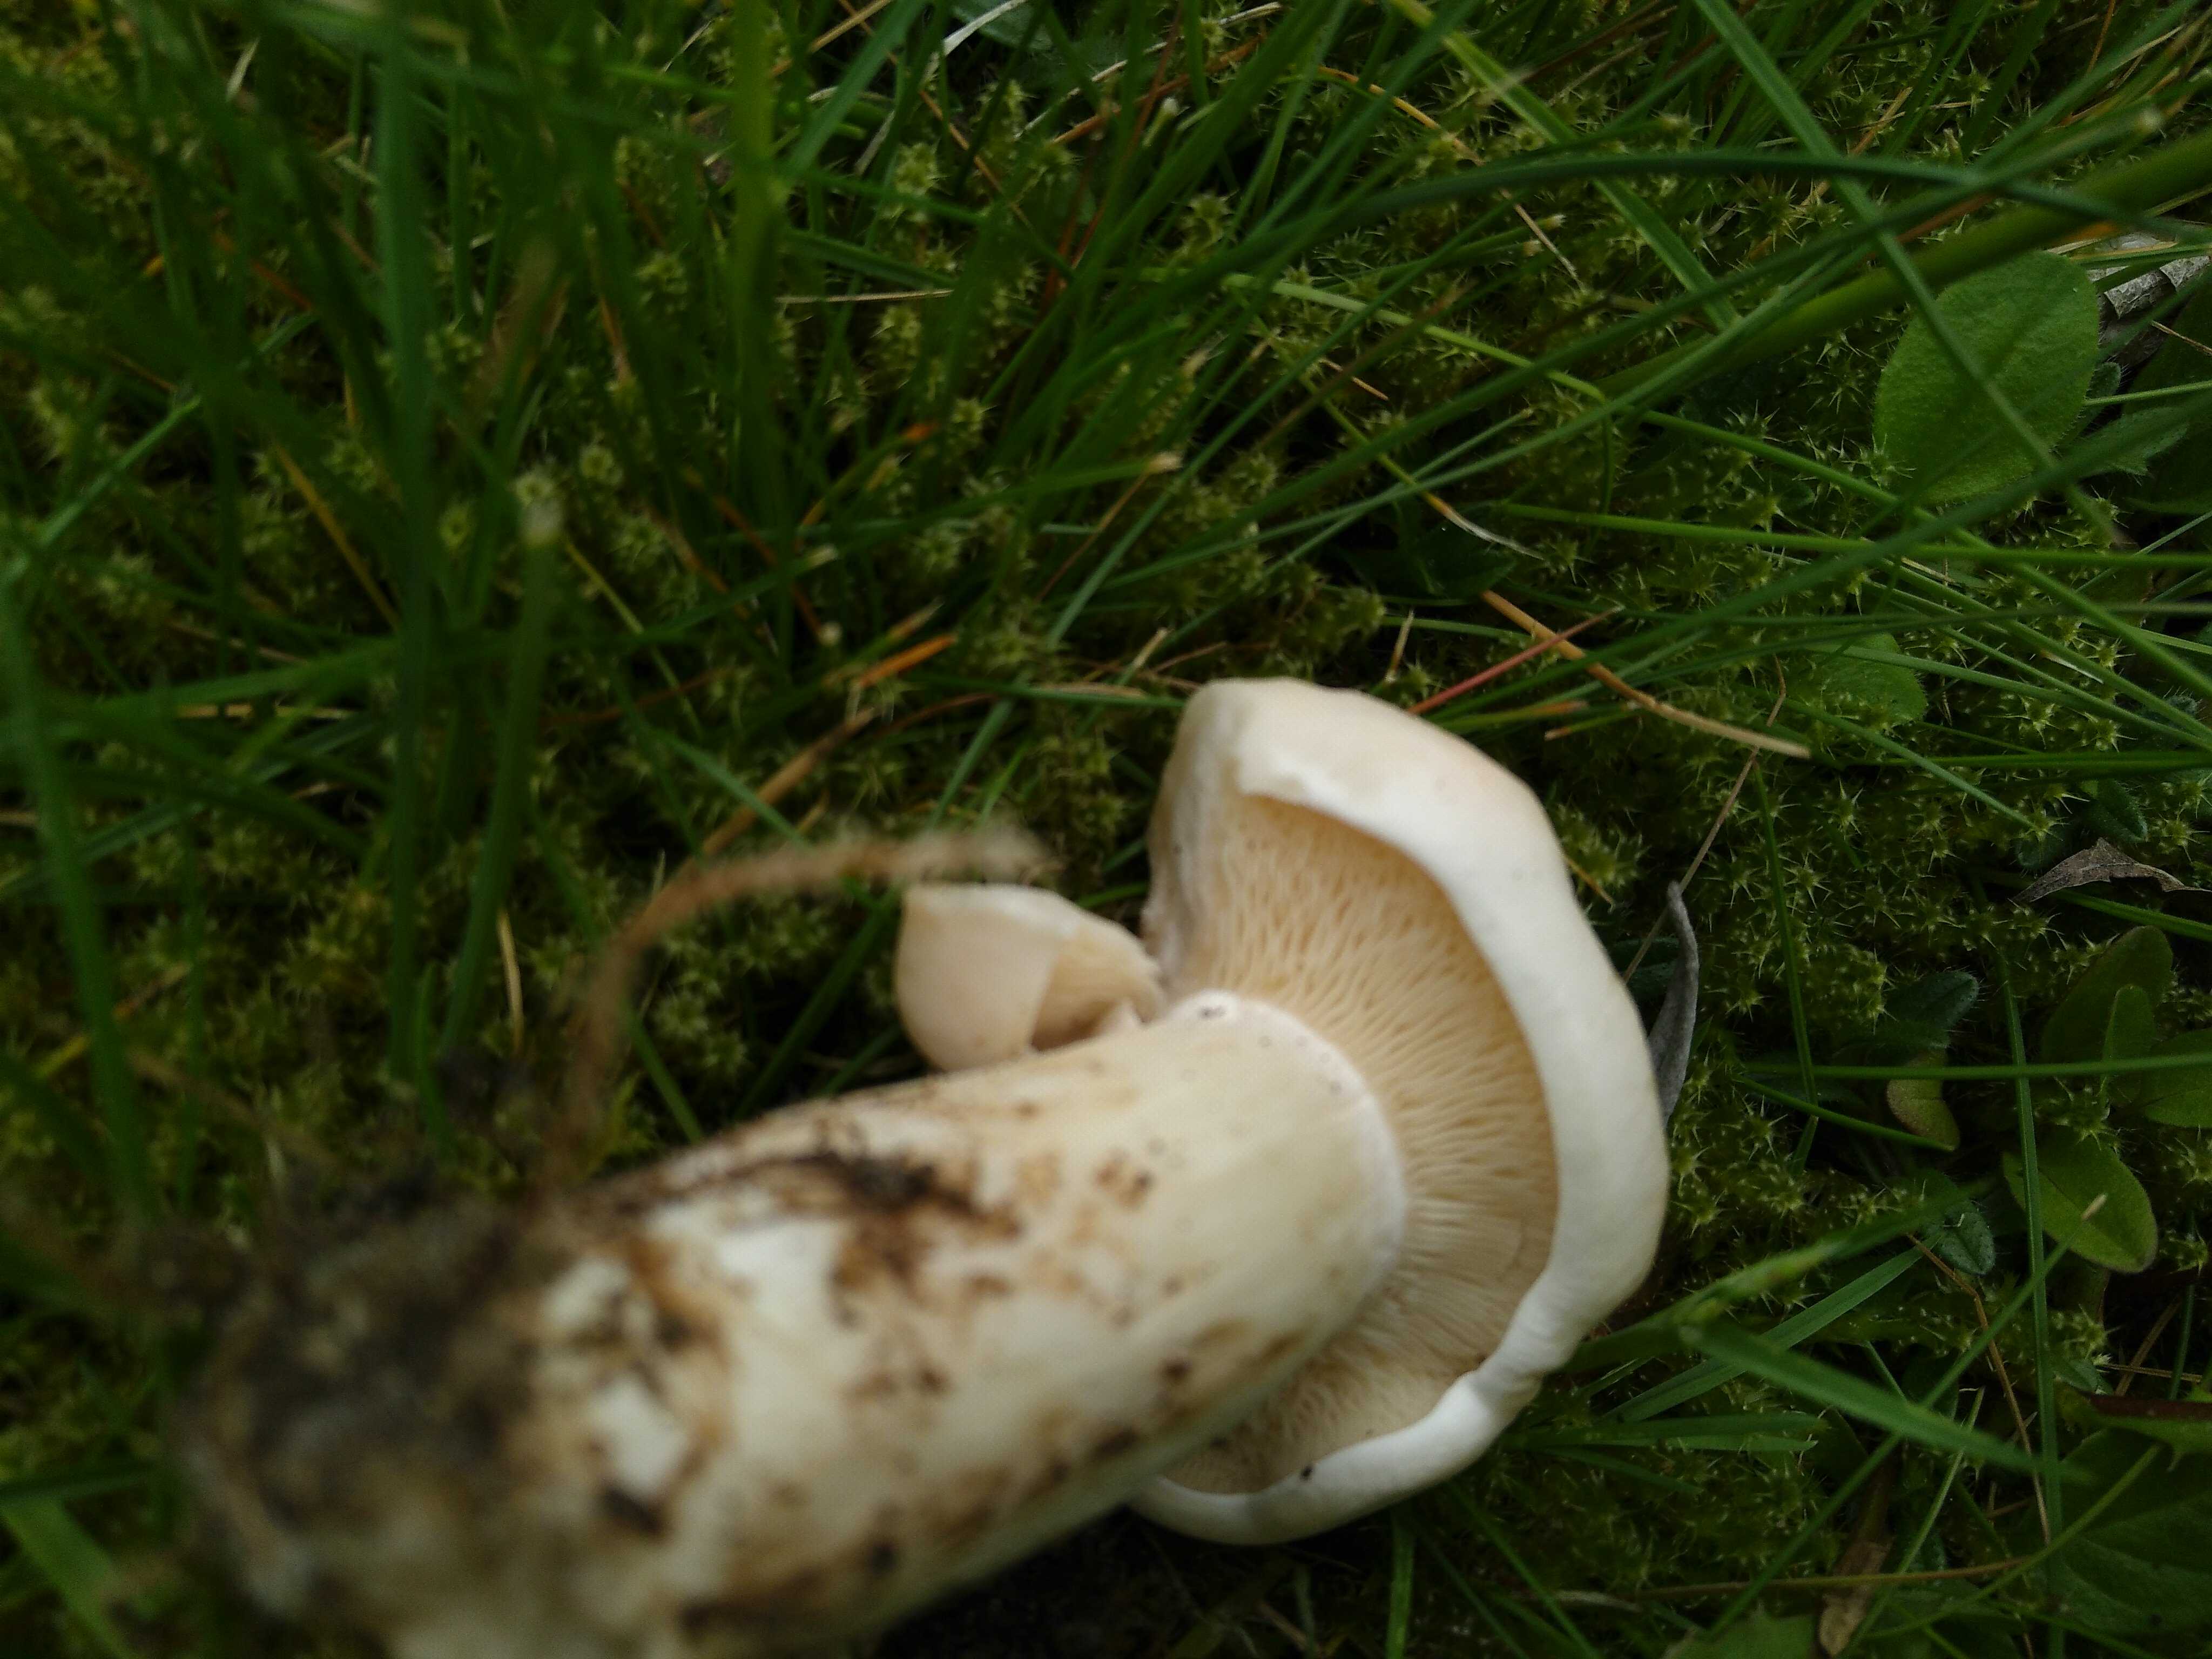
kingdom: Fungi
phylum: Basidiomycota
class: Agaricomycetes
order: Agaricales
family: Lyophyllaceae
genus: Calocybe
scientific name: Calocybe gambosa
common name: vårmusseron
